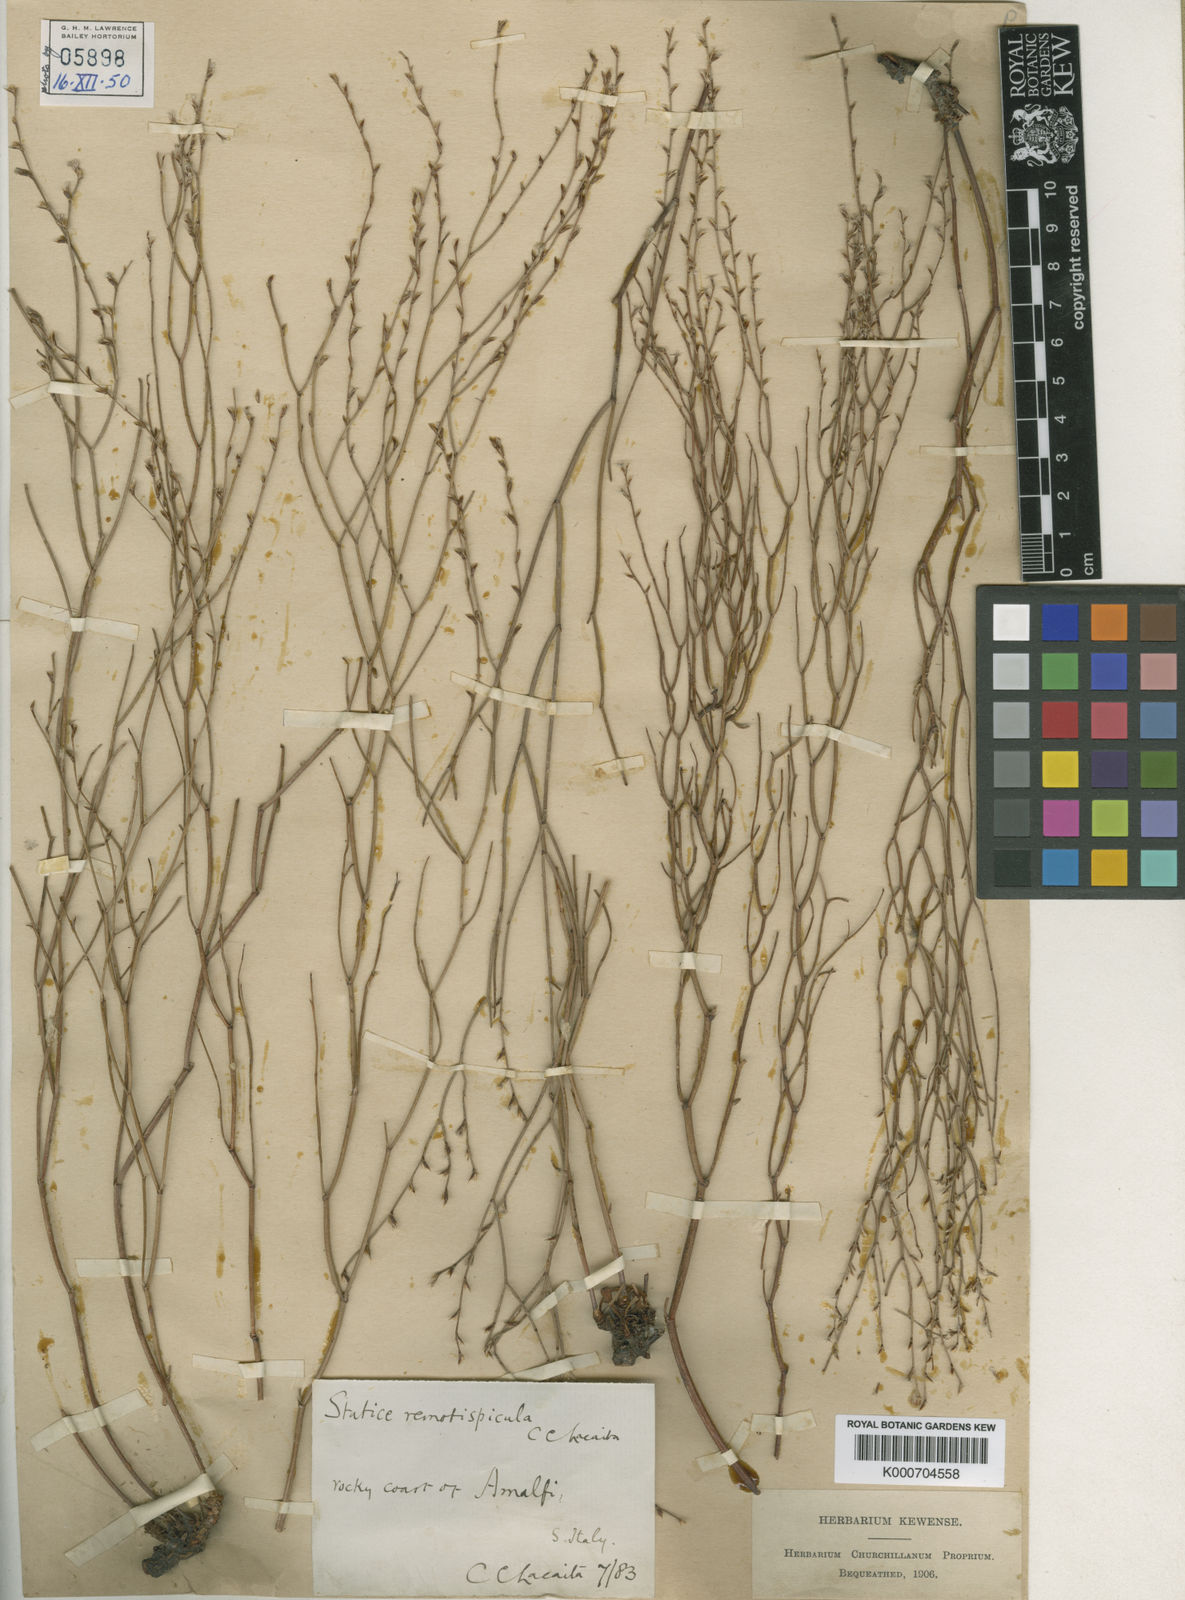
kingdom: Plantae
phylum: Tracheophyta
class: Magnoliopsida
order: Caryophyllales
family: Plumbaginaceae
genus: Limonium
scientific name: Limonium remotispiculum
